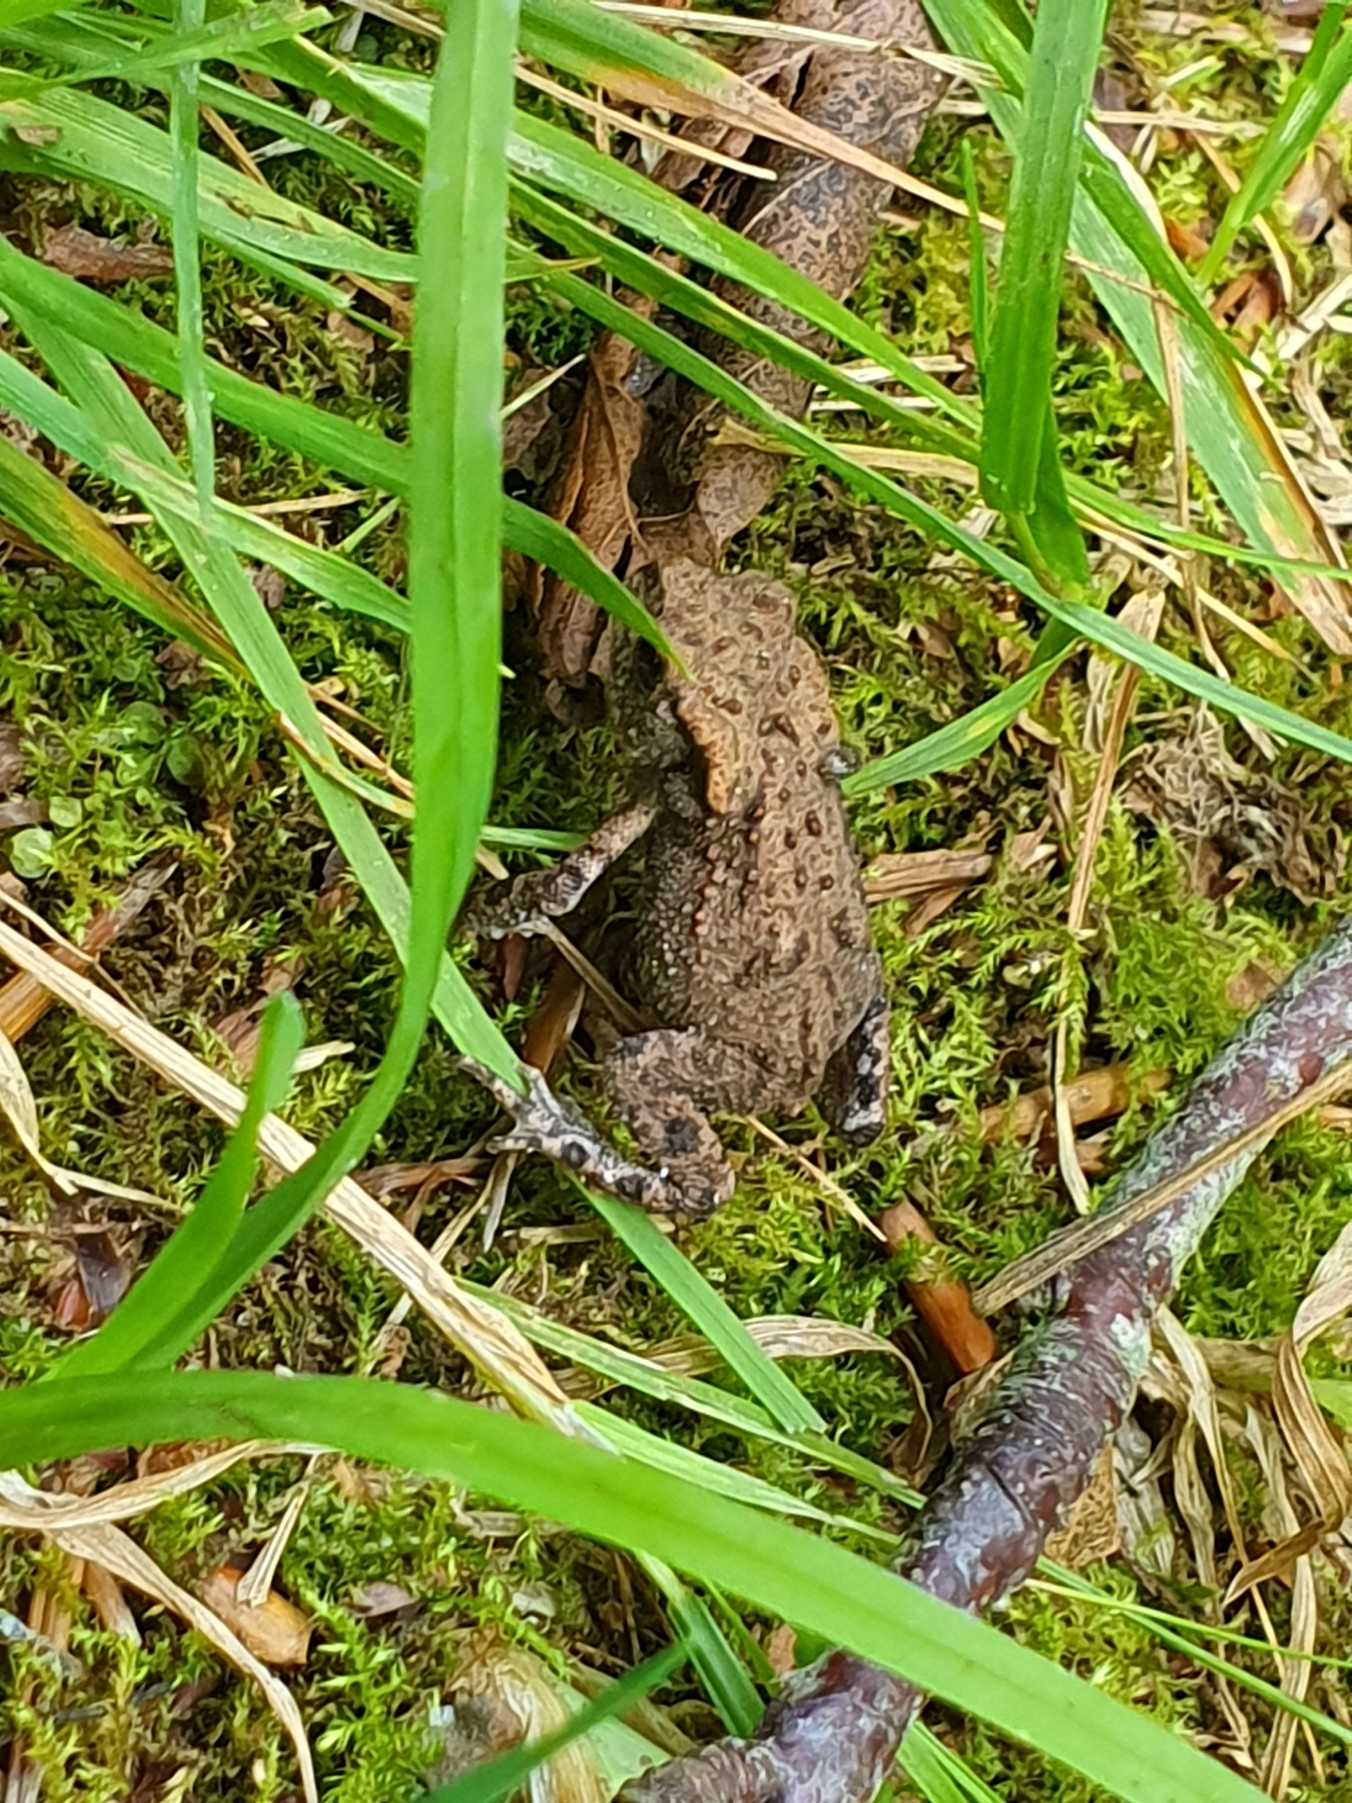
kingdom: Animalia
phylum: Chordata
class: Amphibia
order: Anura
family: Bufonidae
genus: Bufo
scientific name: Bufo bufo
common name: Skrubtudse
